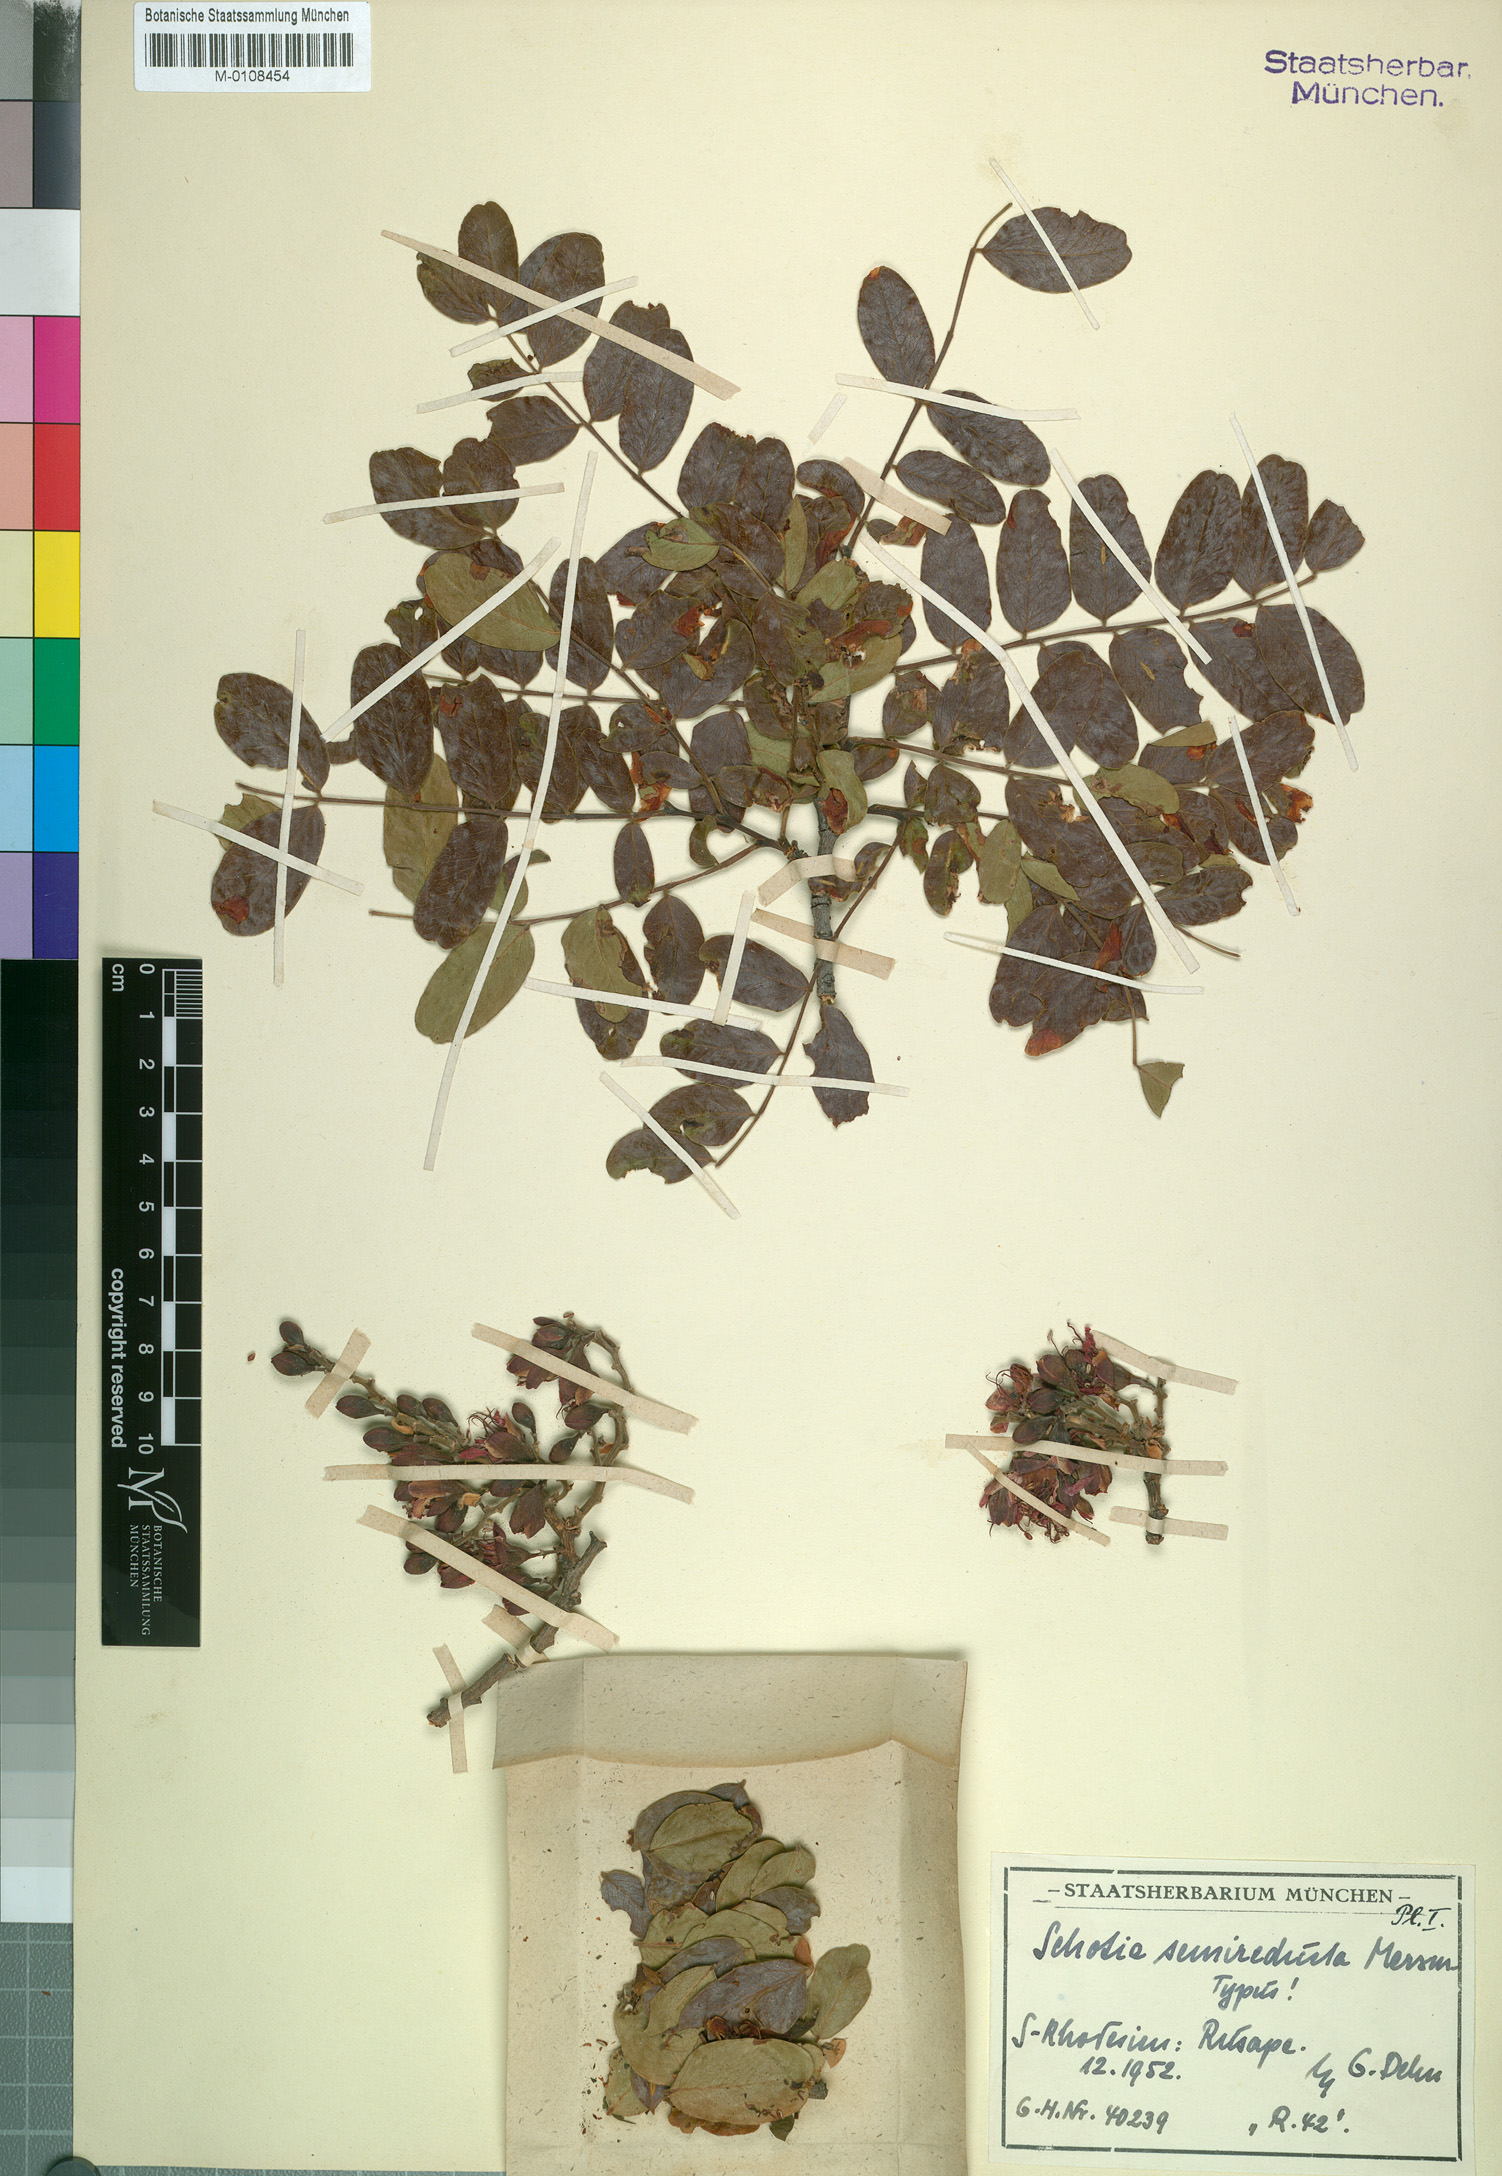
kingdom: Plantae
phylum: Tracheophyta
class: Magnoliopsida
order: Fabales
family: Fabaceae
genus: Schotia
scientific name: Schotia brachypetala
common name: Weeping boer-bean
